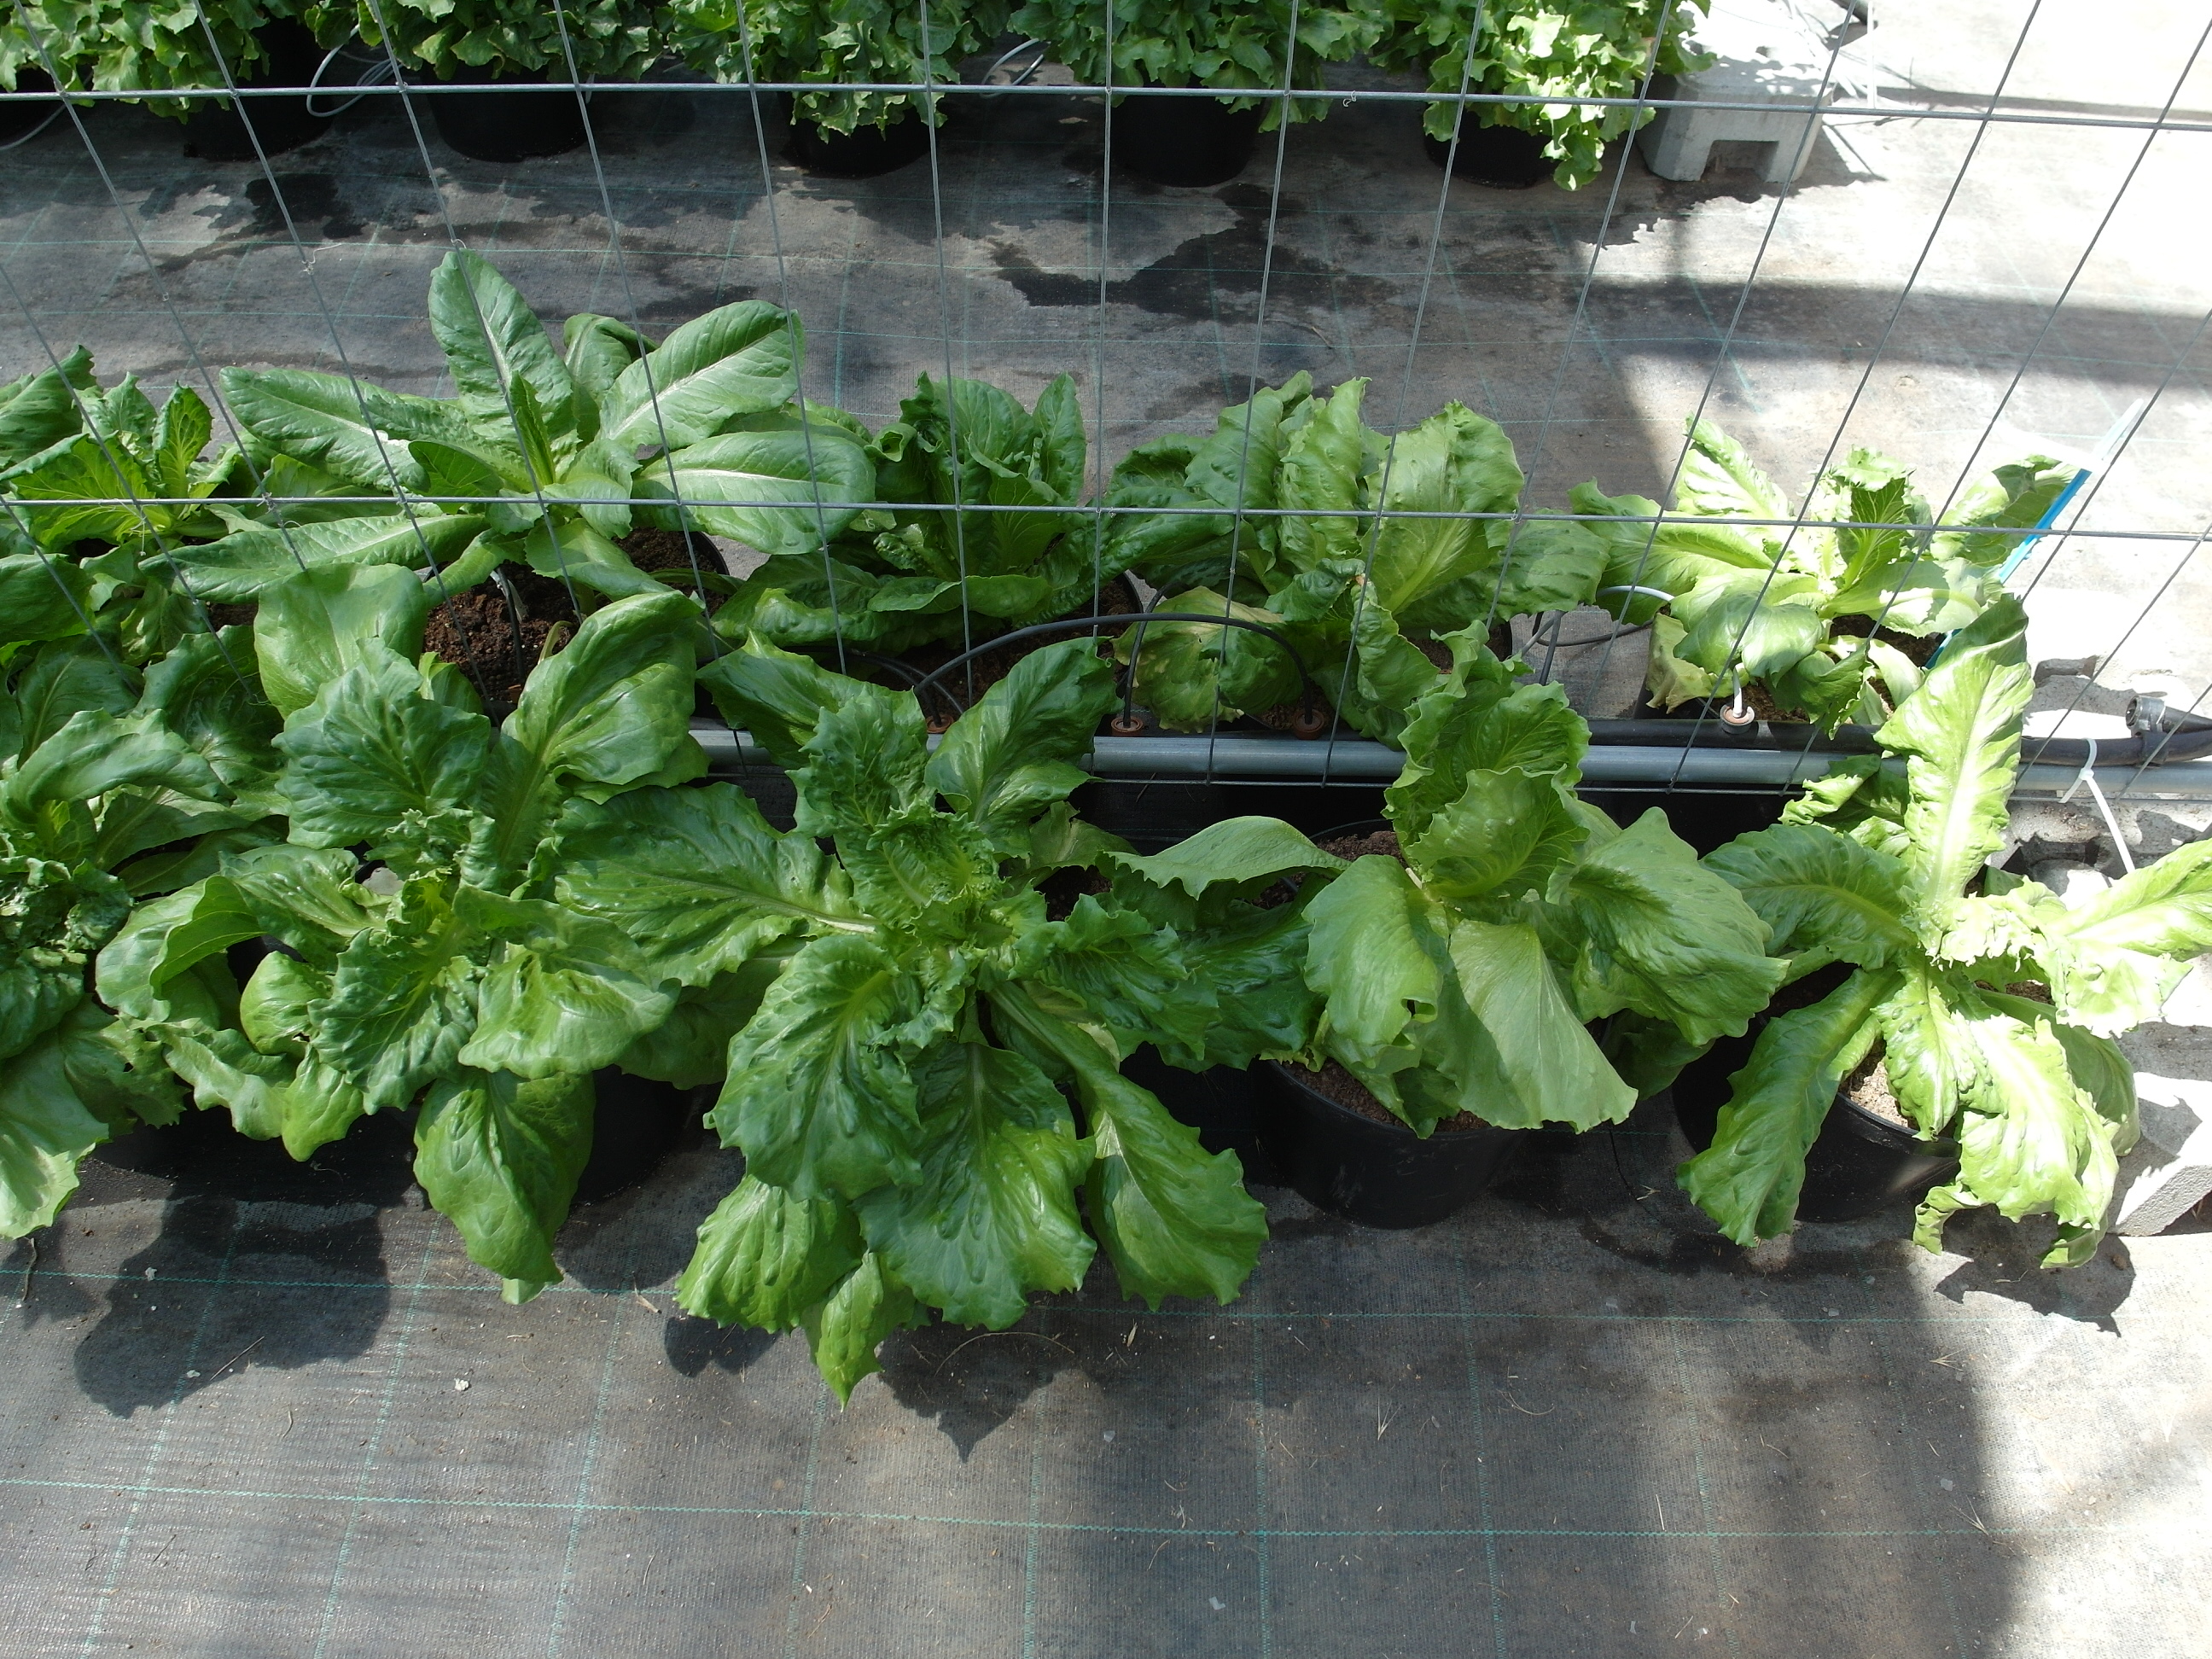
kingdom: Plantae
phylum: Tracheophyta
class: Magnoliopsida
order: Asterales
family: Asteraceae
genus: Lactuca
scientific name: Lactuca sativa
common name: Garden lettuce
